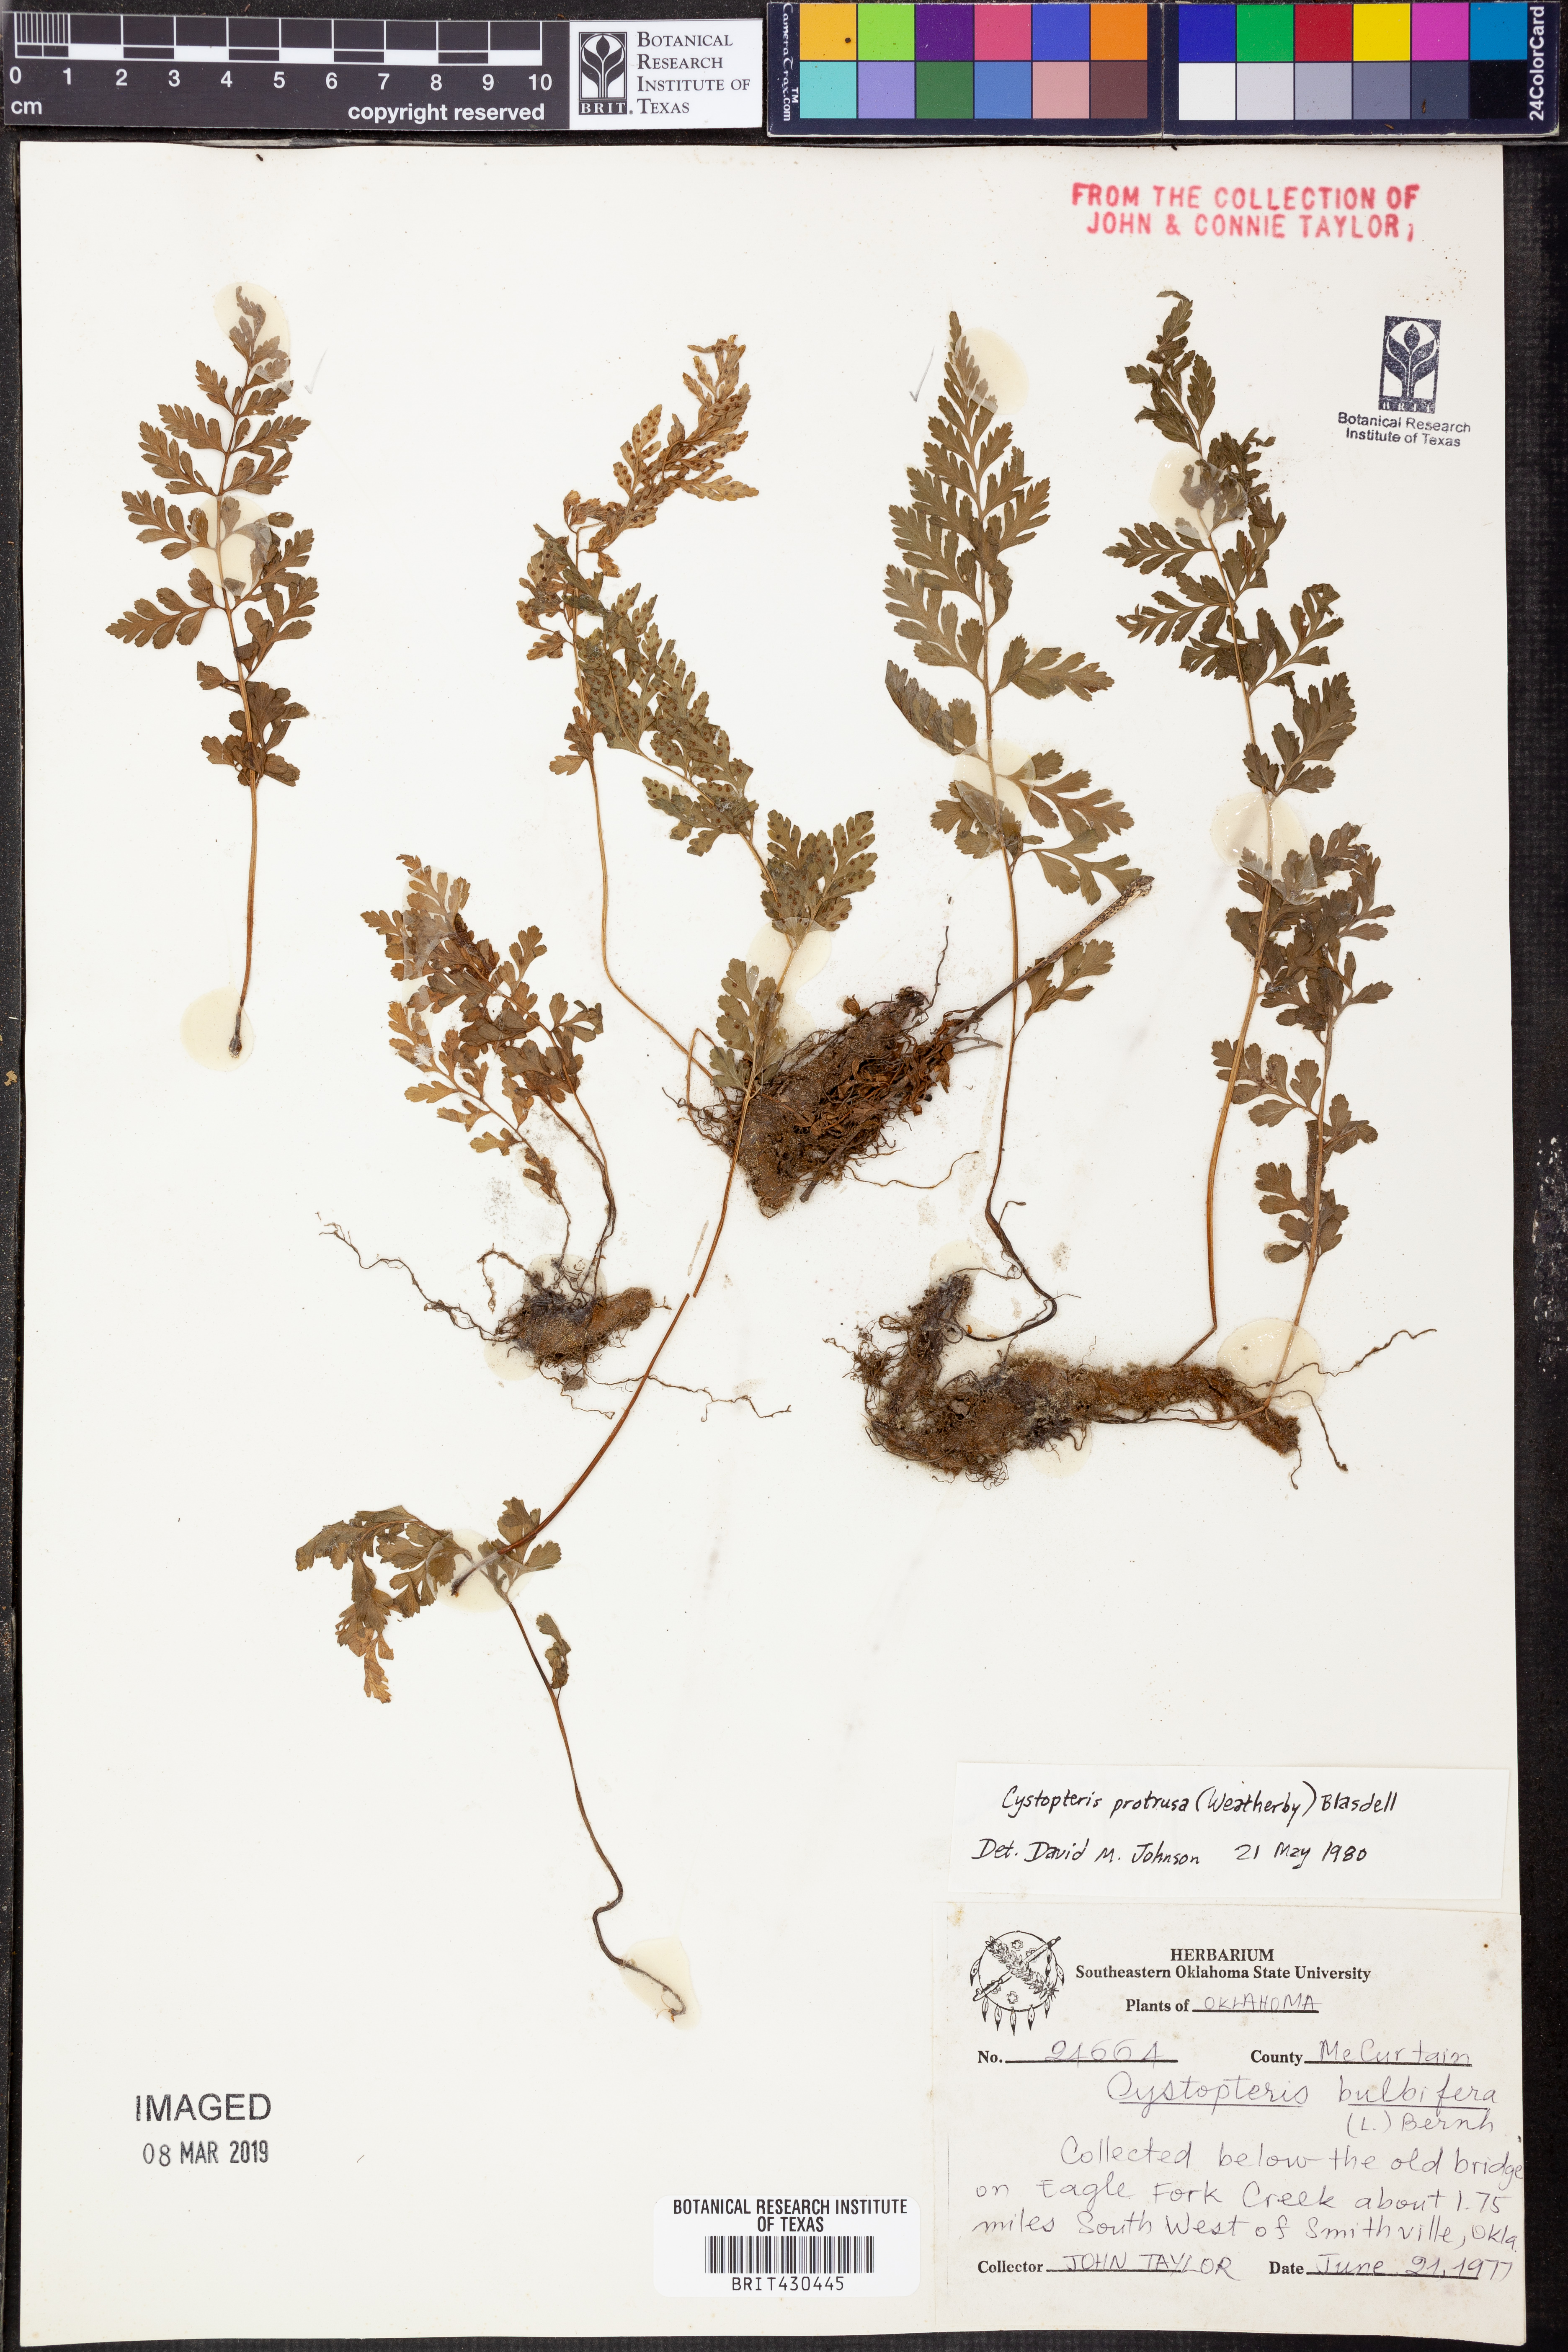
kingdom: Plantae
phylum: Tracheophyta
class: Polypodiopsida
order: Polypodiales
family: Cystopteridaceae
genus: Cystopteris
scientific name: Cystopteris protrusa
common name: Lowland brittle fern
